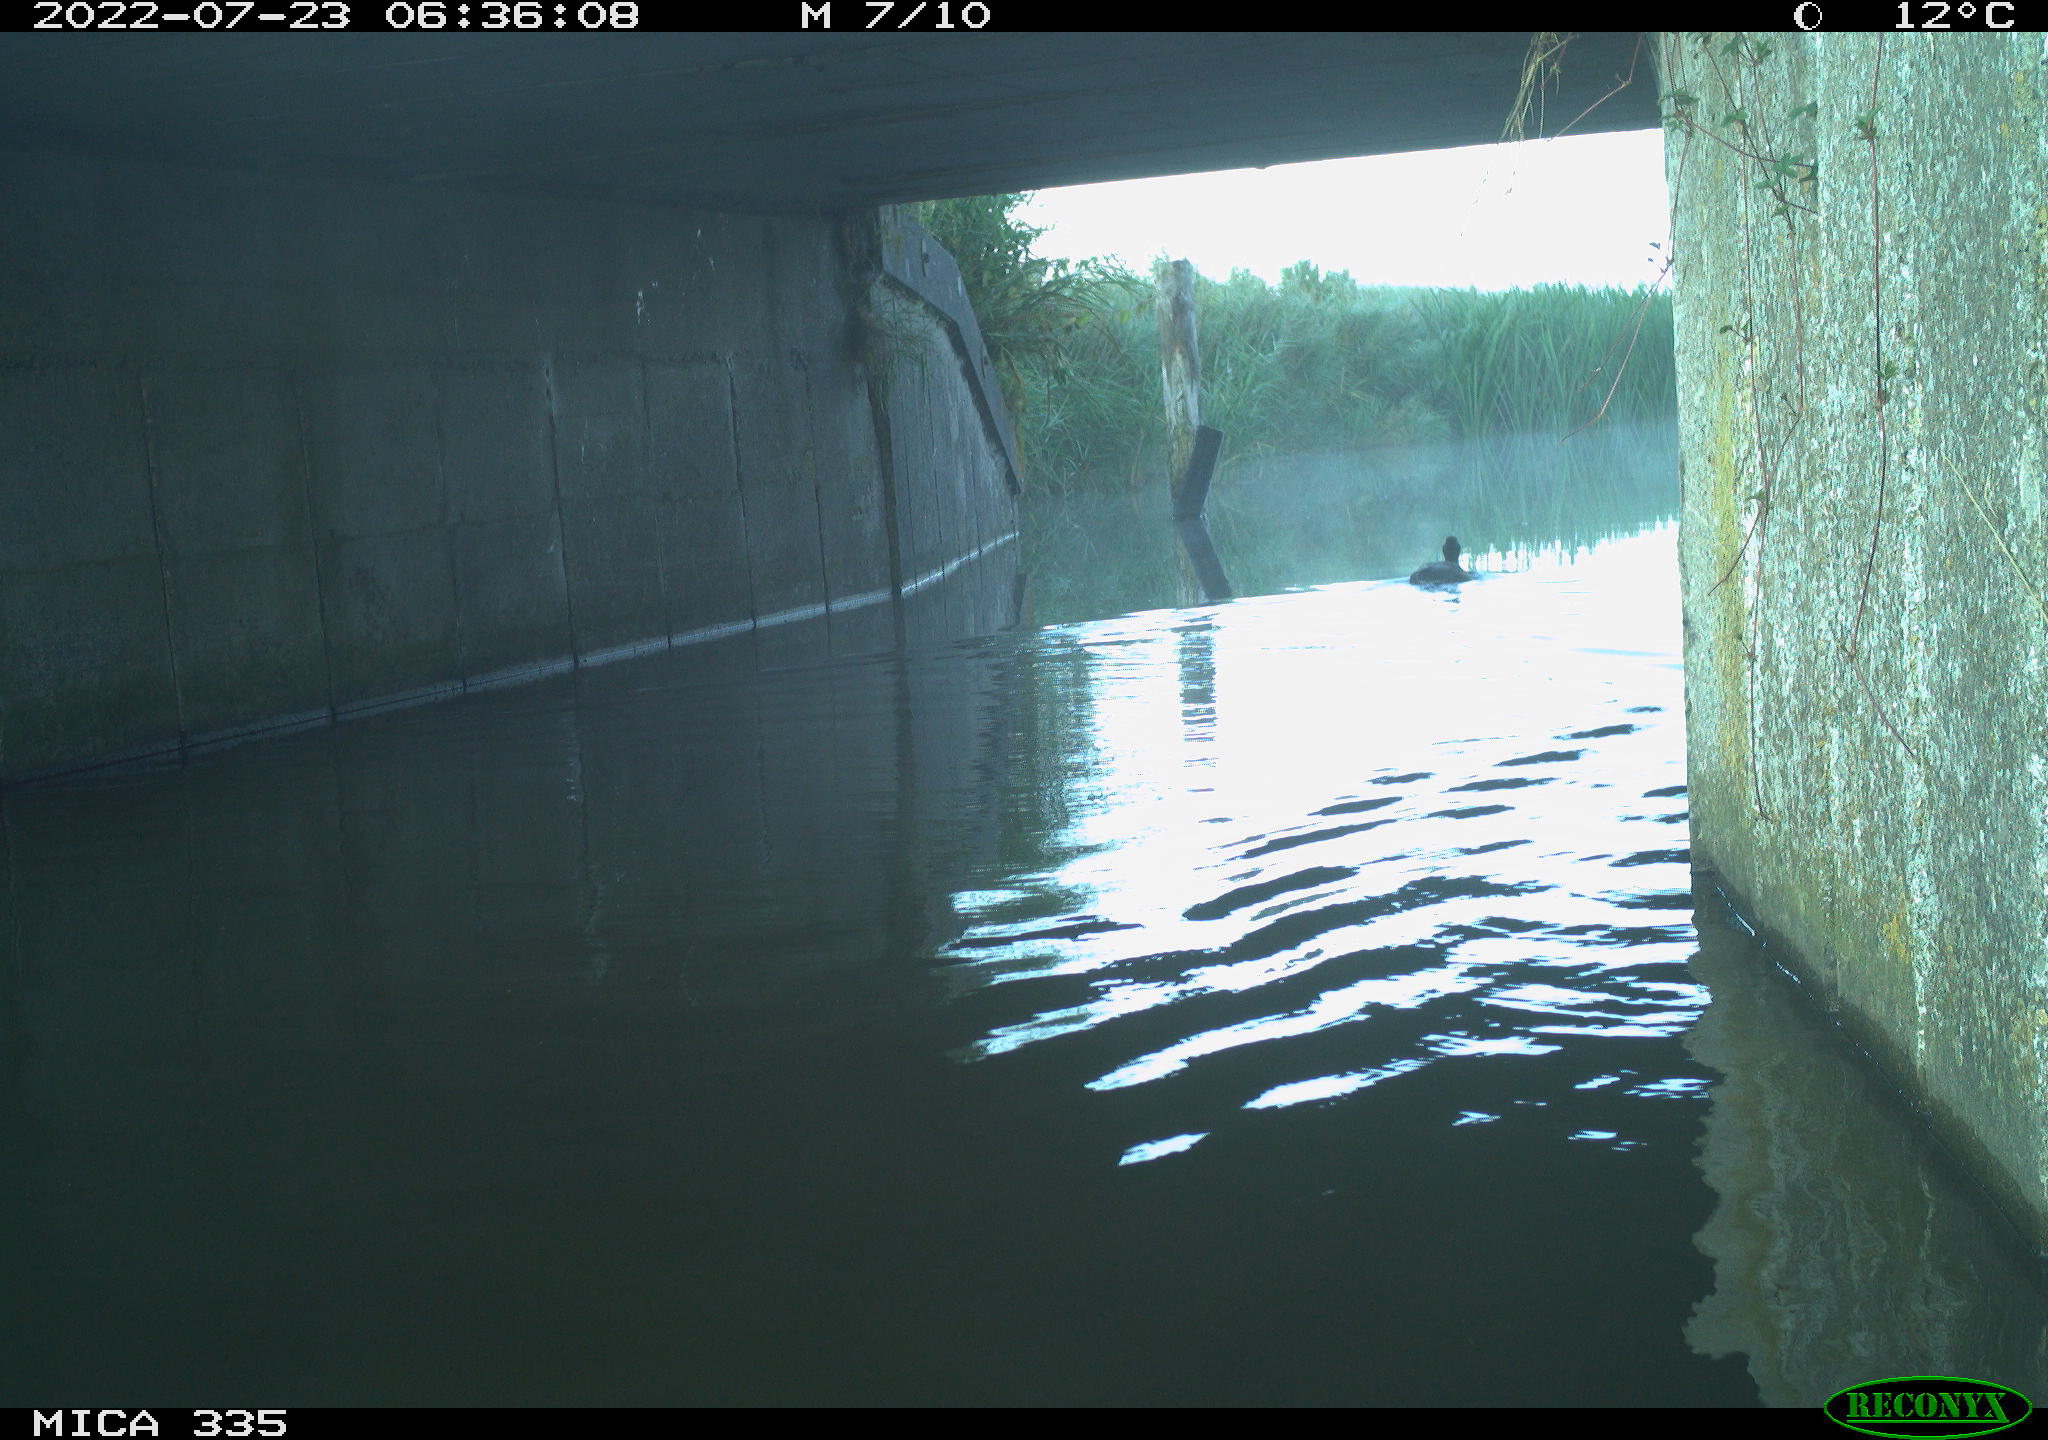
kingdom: Animalia
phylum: Chordata
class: Aves
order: Anseriformes
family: Anatidae
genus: Anas
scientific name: Anas platyrhynchos
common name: Mallard
